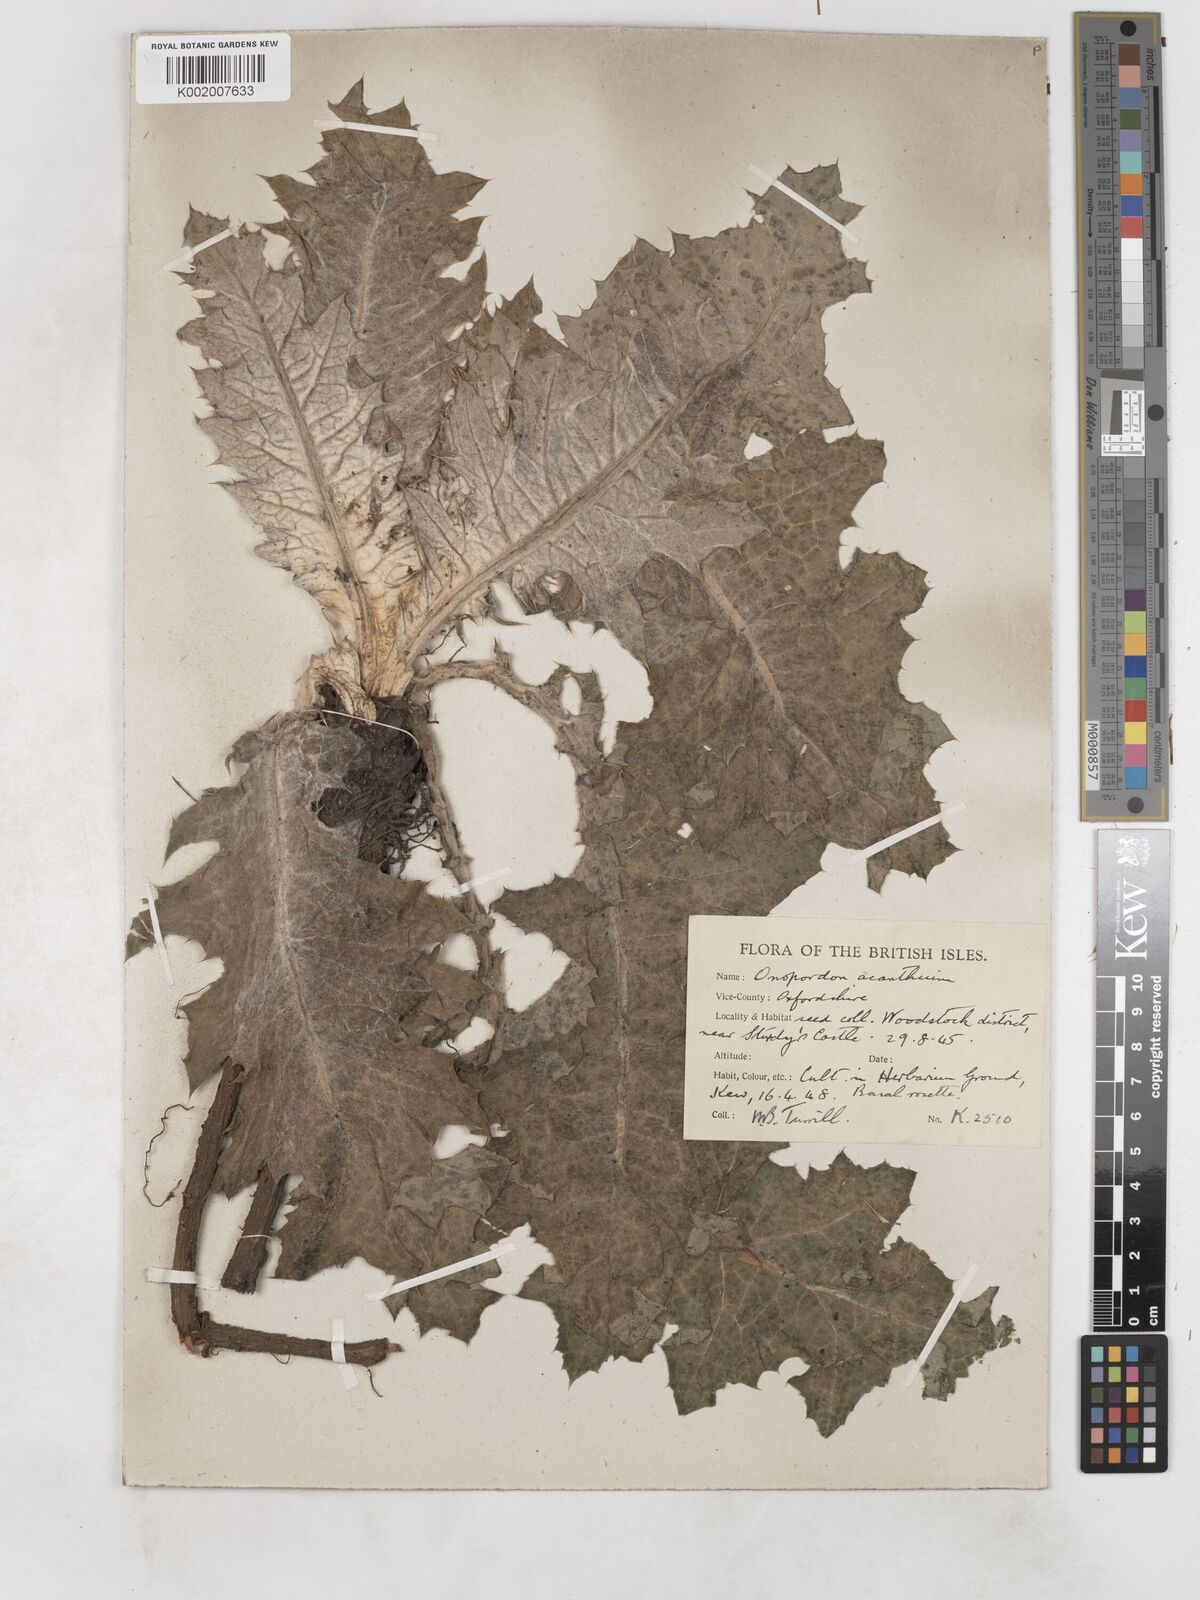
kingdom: Plantae
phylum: Tracheophyta
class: Magnoliopsida
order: Asterales
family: Asteraceae
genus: Onopordum
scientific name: Onopordum acanthium
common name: Scotch thistle
